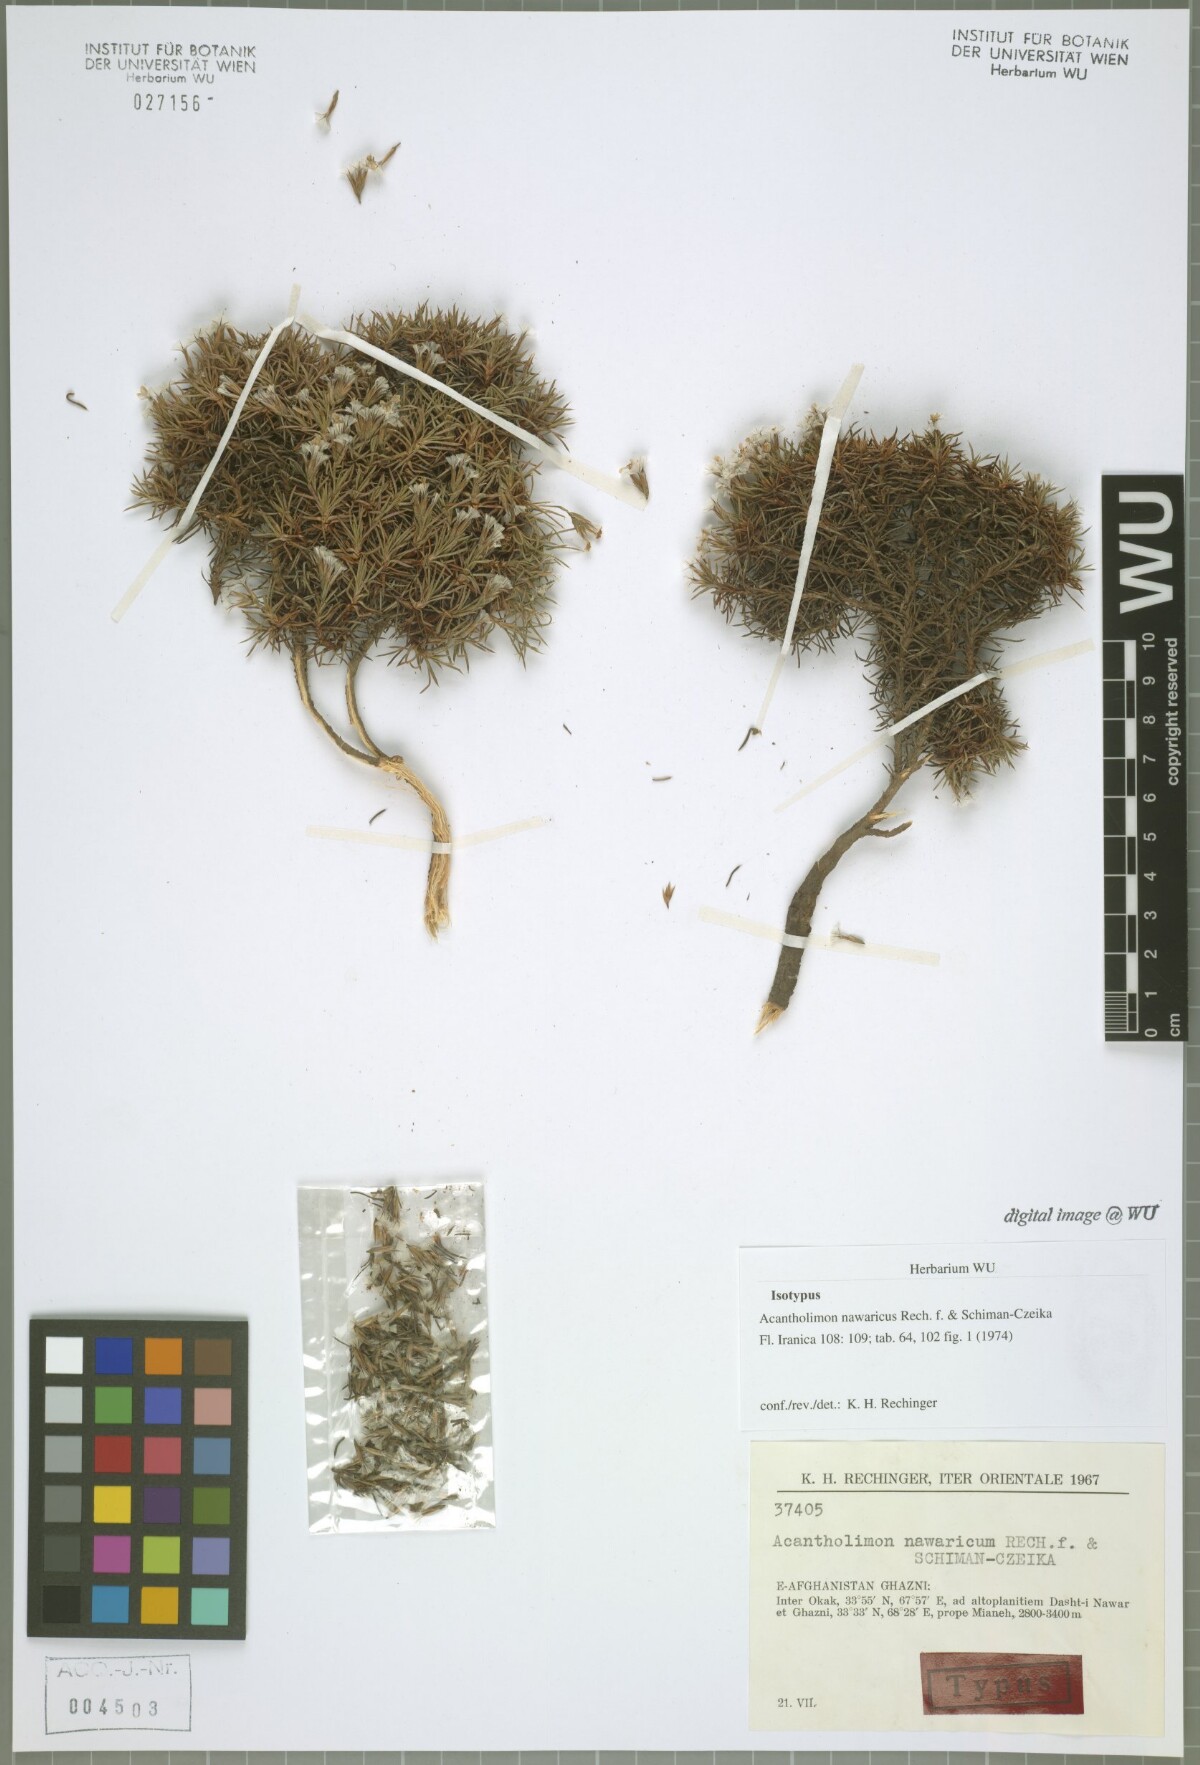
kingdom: Plantae
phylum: Tracheophyta
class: Magnoliopsida
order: Caryophyllales
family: Plumbaginaceae
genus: Acantholimon
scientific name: Acantholimon nawaricum
